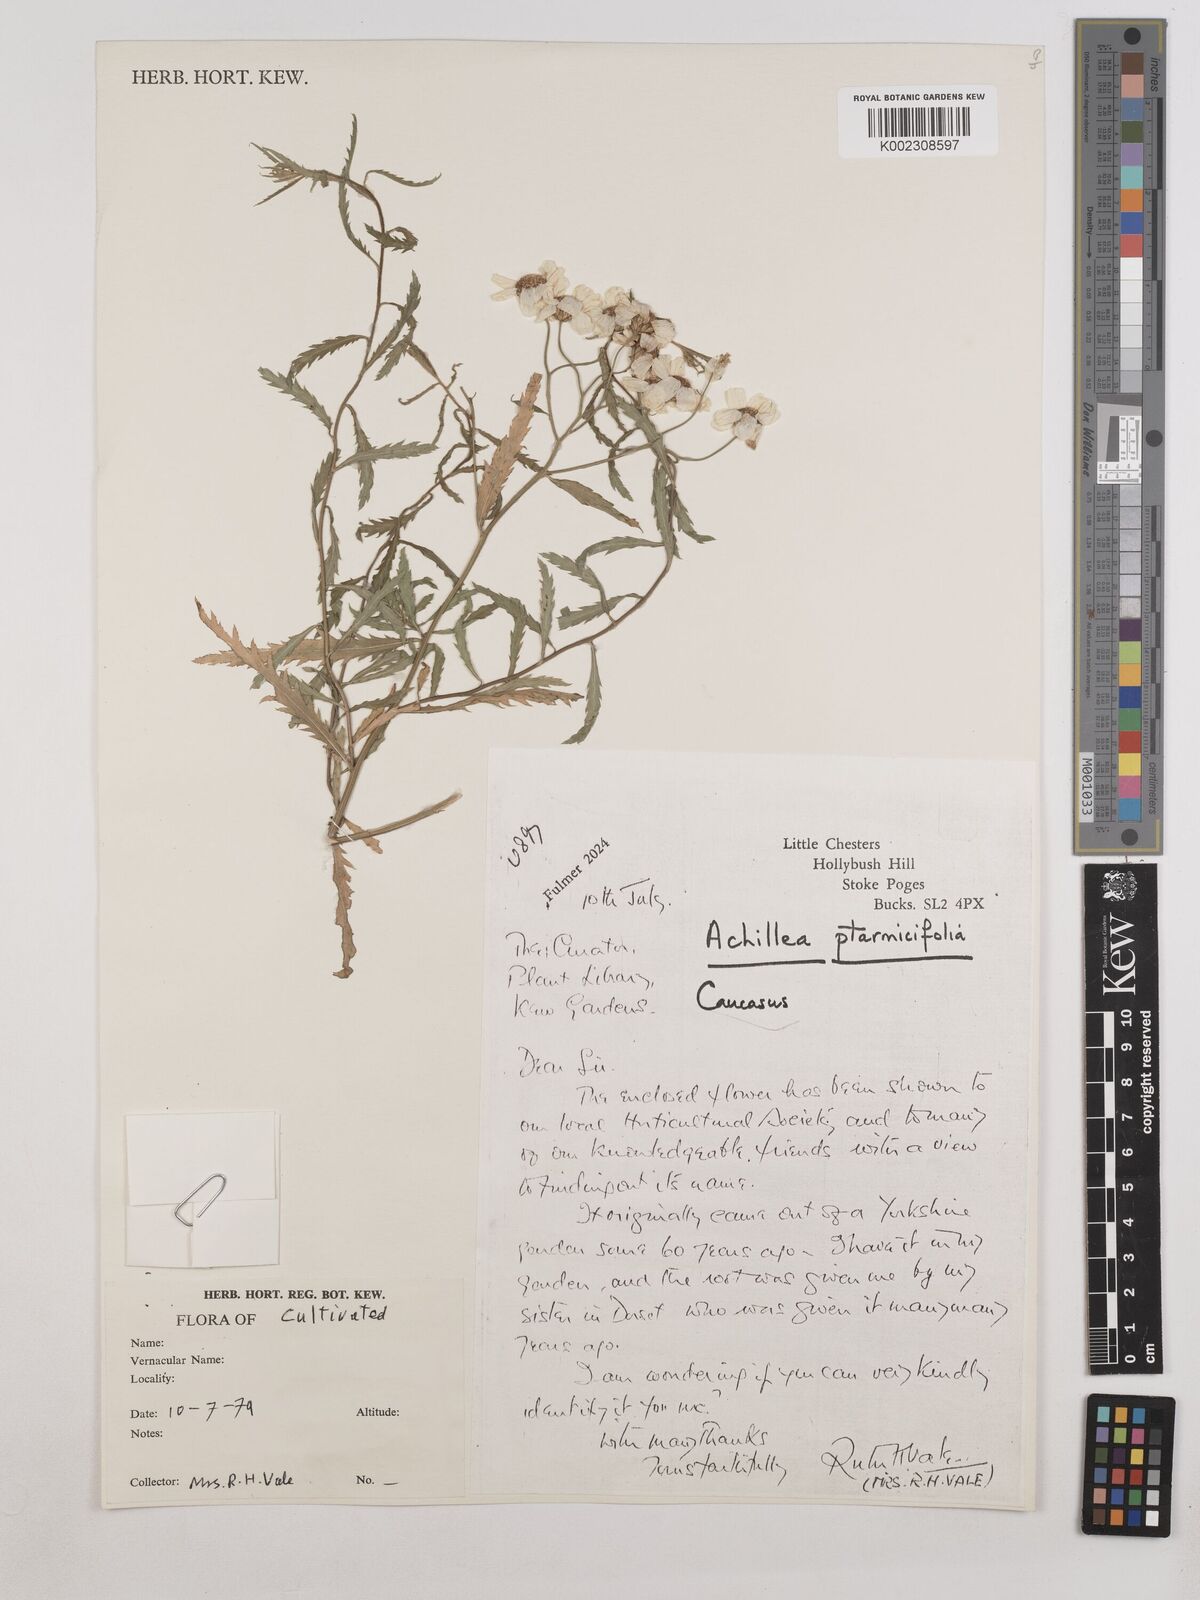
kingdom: Plantae
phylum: Tracheophyta
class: Magnoliopsida
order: Asterales
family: Asteraceae
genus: Achillea
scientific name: Achillea ptarmica
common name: Sneezeweed
